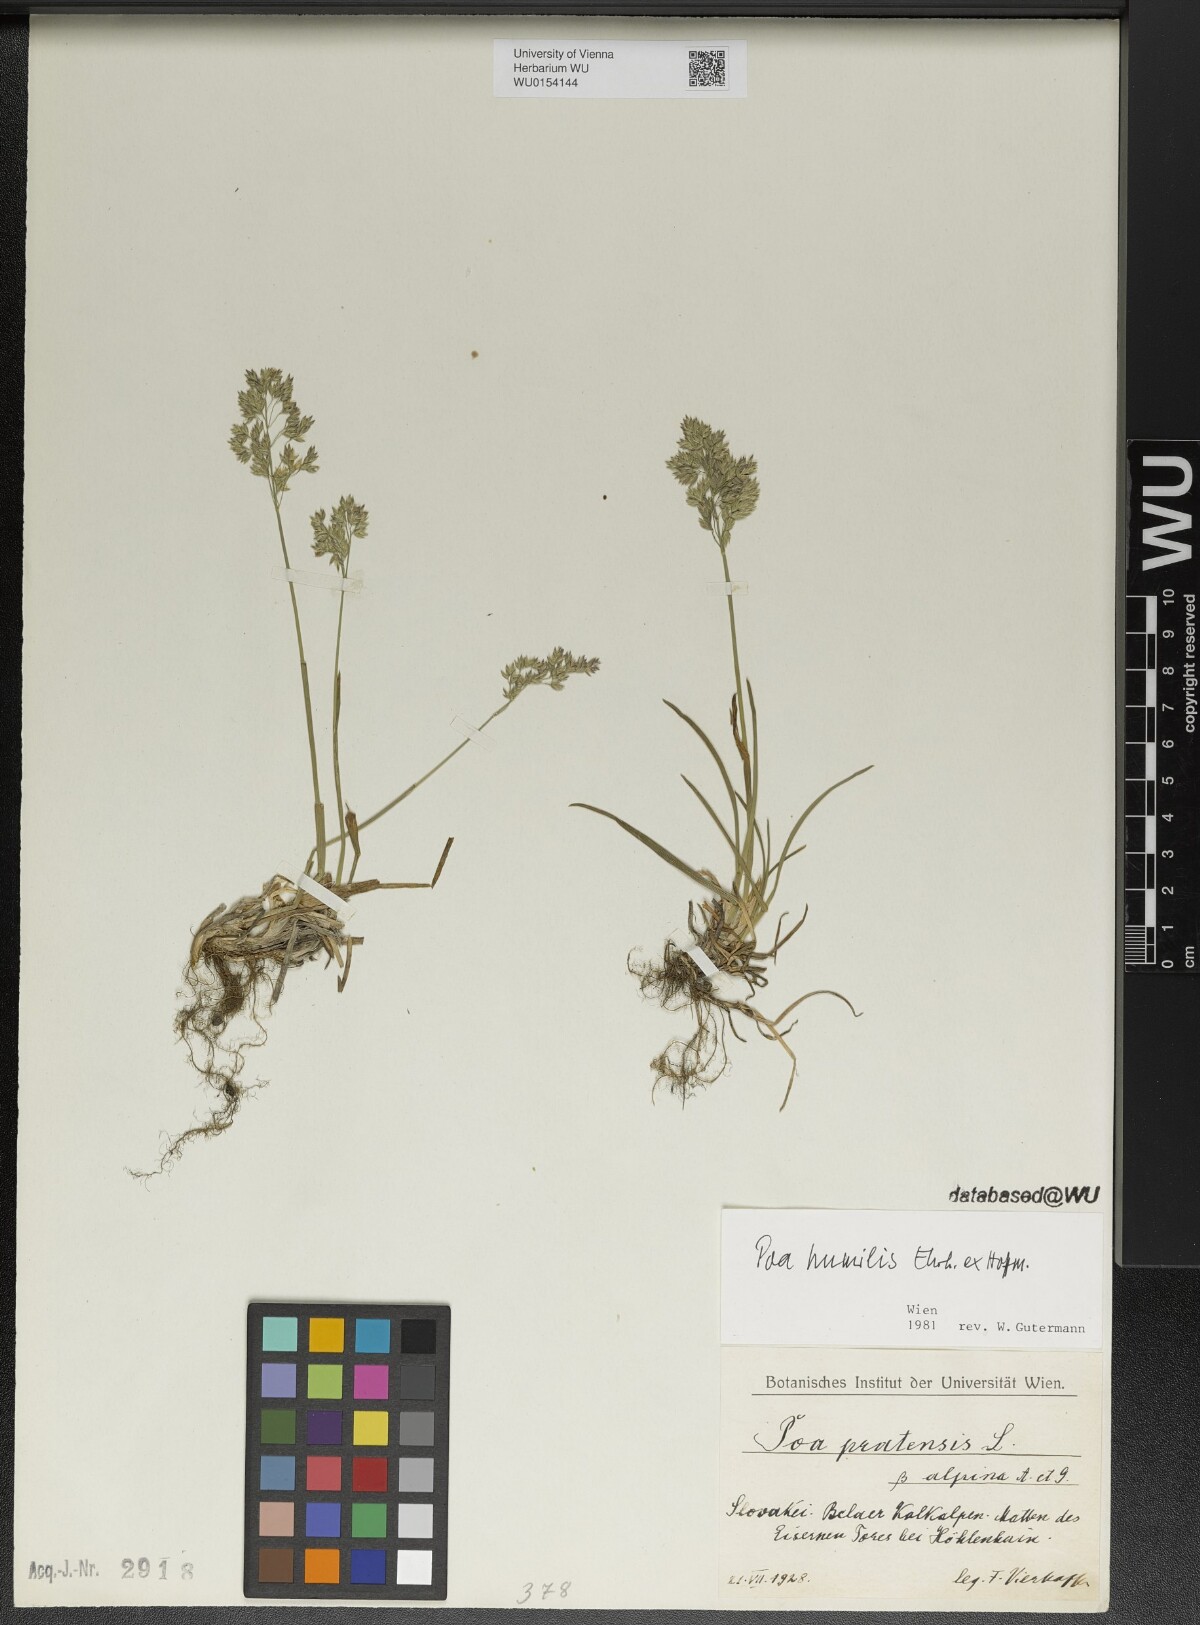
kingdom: Plantae
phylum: Tracheophyta
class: Liliopsida
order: Poales
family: Poaceae
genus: Poa
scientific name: Poa humilis
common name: Spreading meadow-grass
